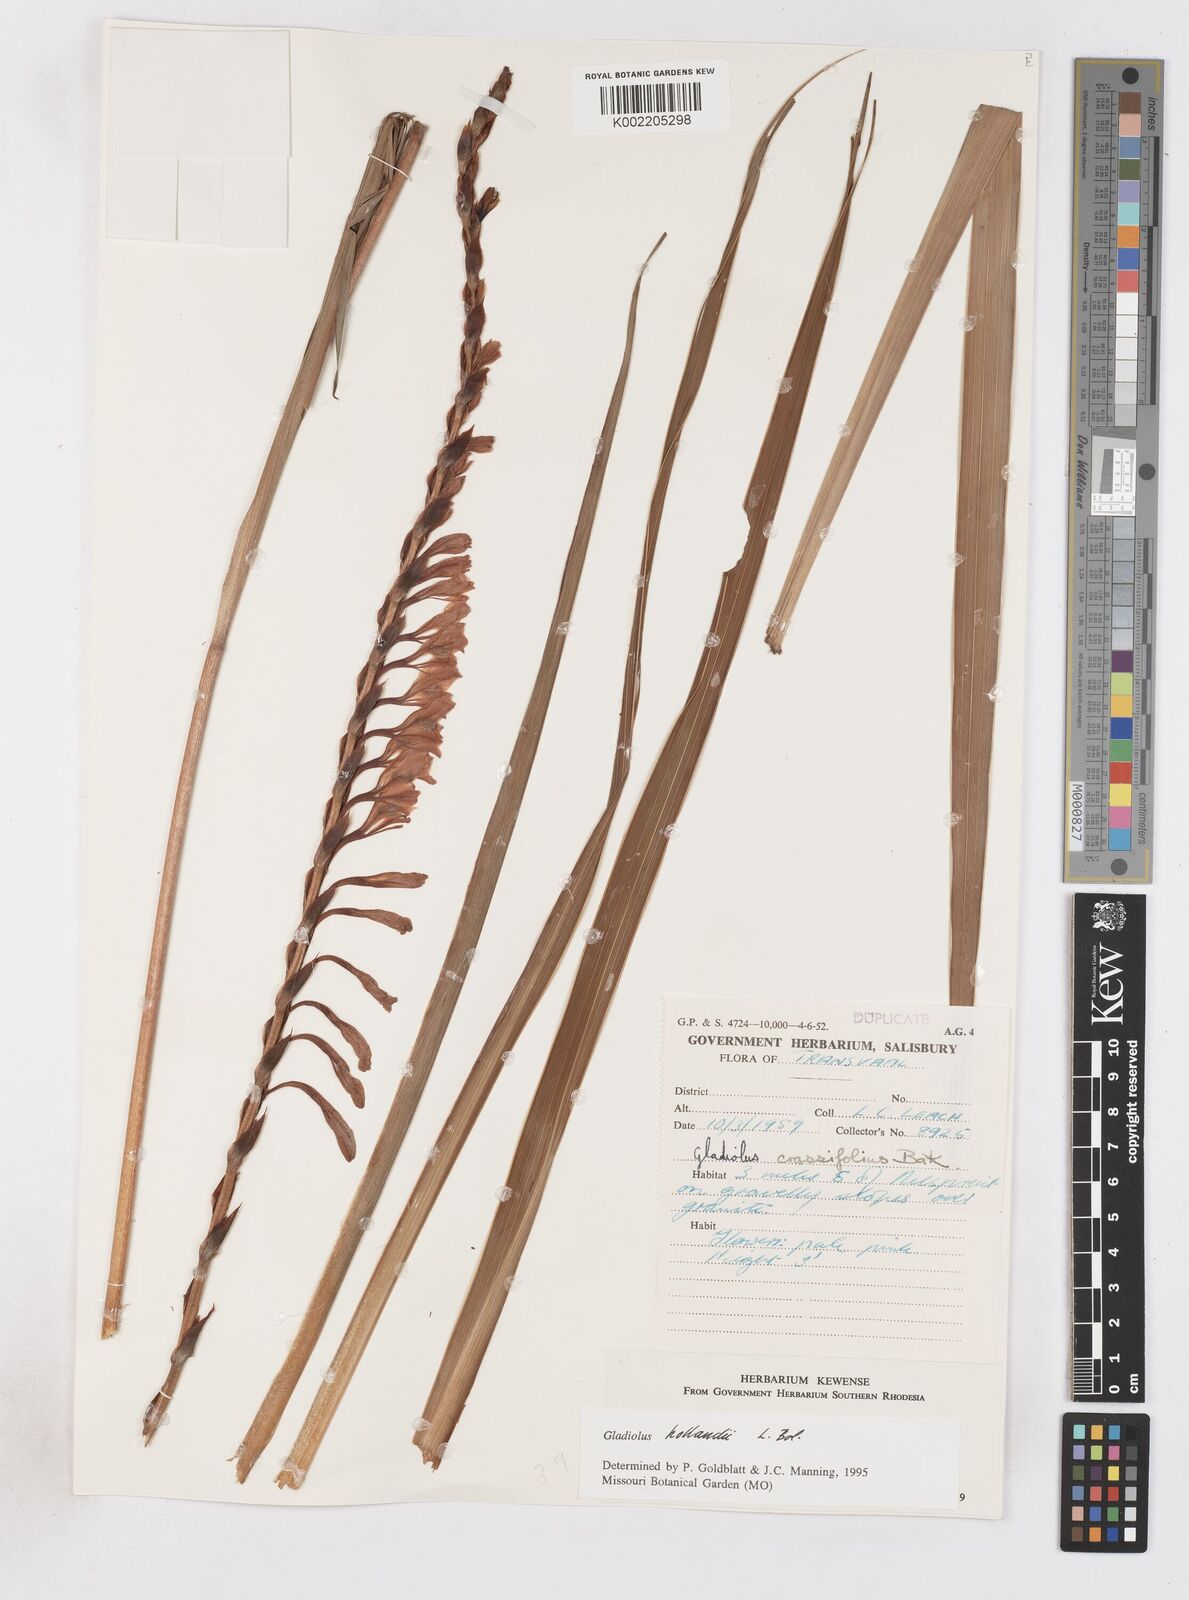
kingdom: Plantae
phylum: Tracheophyta
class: Liliopsida
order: Asparagales
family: Iridaceae
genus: Gladiolus
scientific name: Gladiolus hollandii
